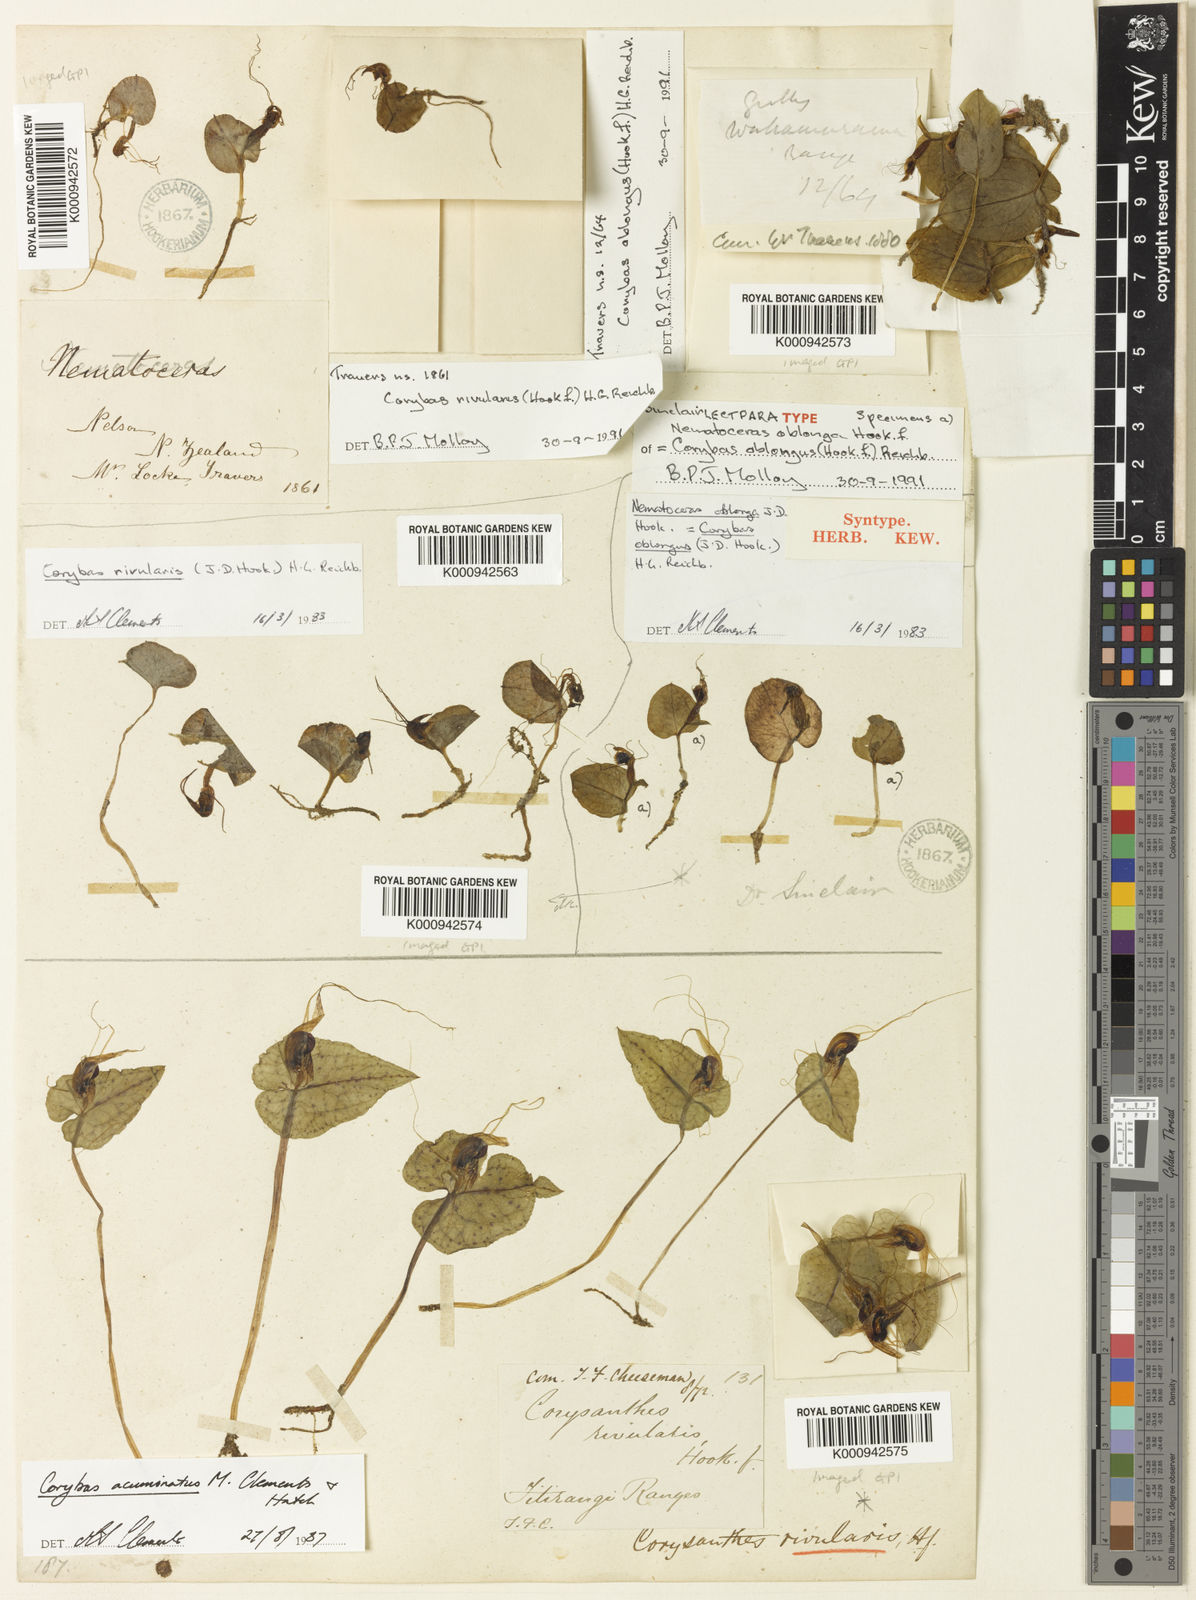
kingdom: Plantae
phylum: Tracheophyta
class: Liliopsida
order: Asparagales
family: Orchidaceae
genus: Corybas
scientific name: Corybas rivularis
